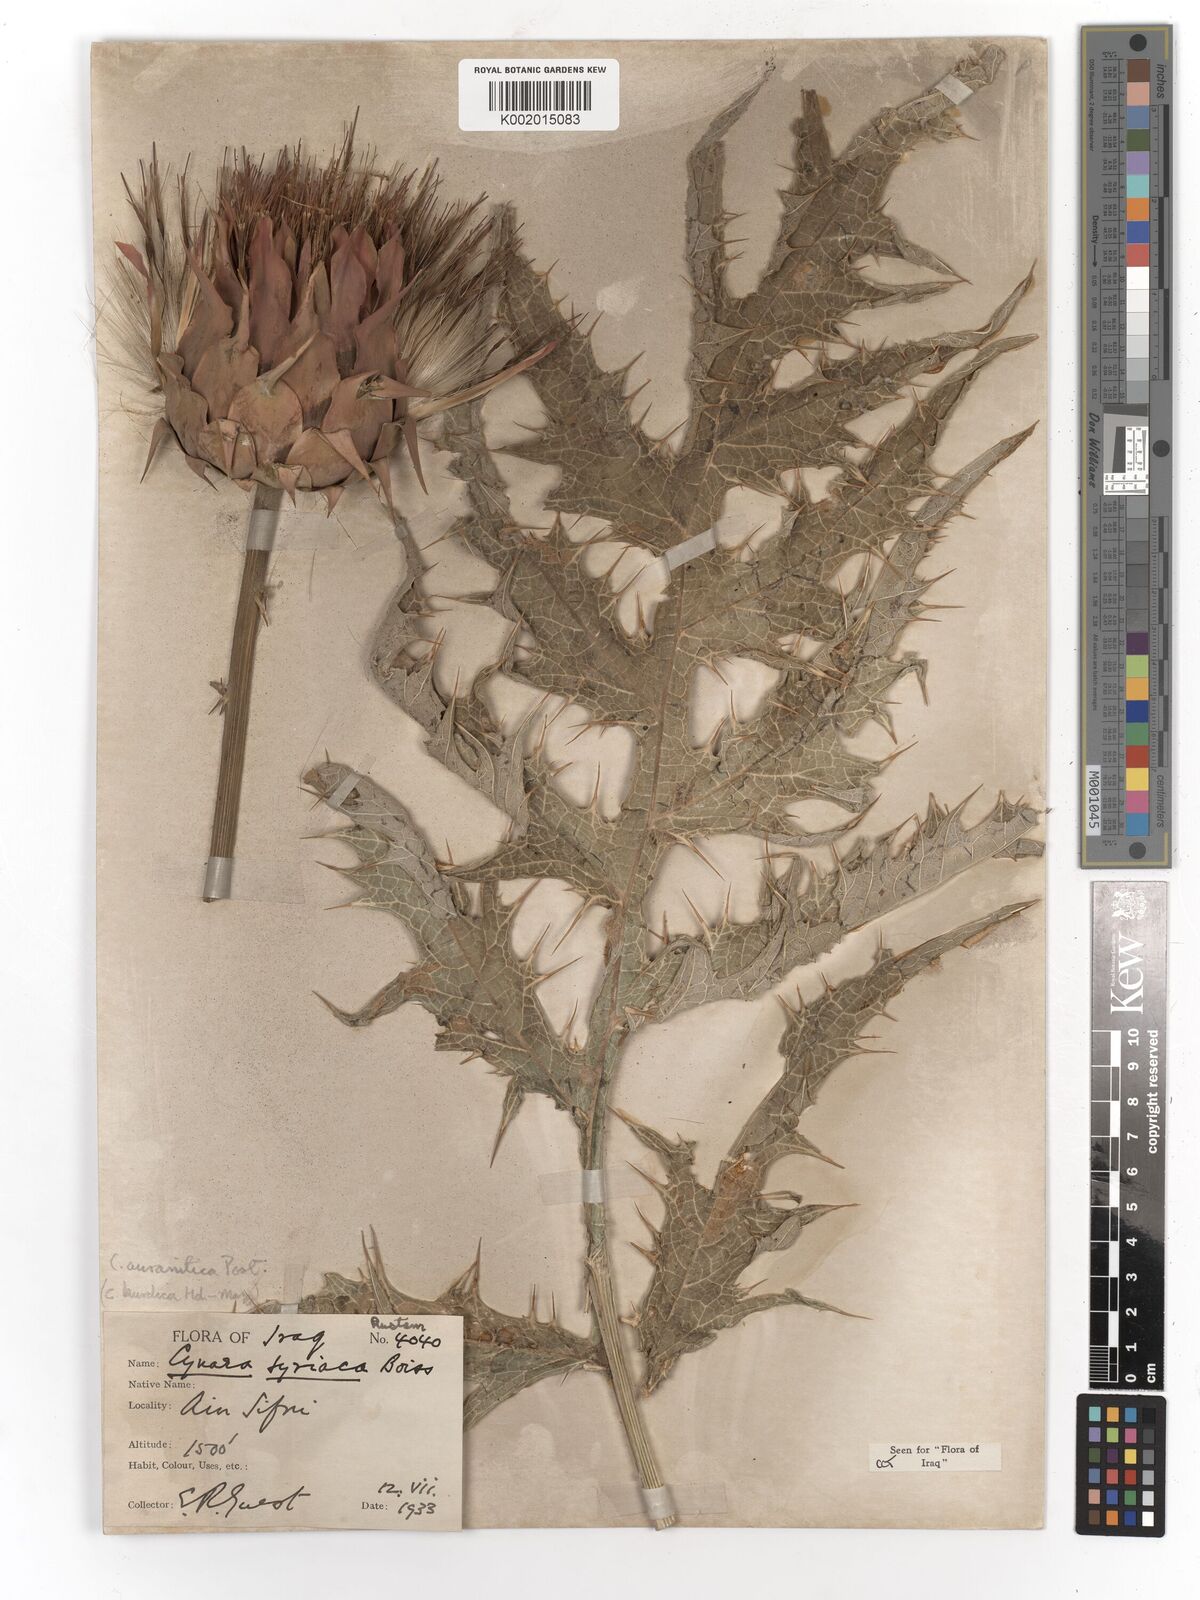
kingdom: Plantae
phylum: Tracheophyta
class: Magnoliopsida
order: Asterales
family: Asteraceae
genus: Cynara
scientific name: Cynara syriaca
